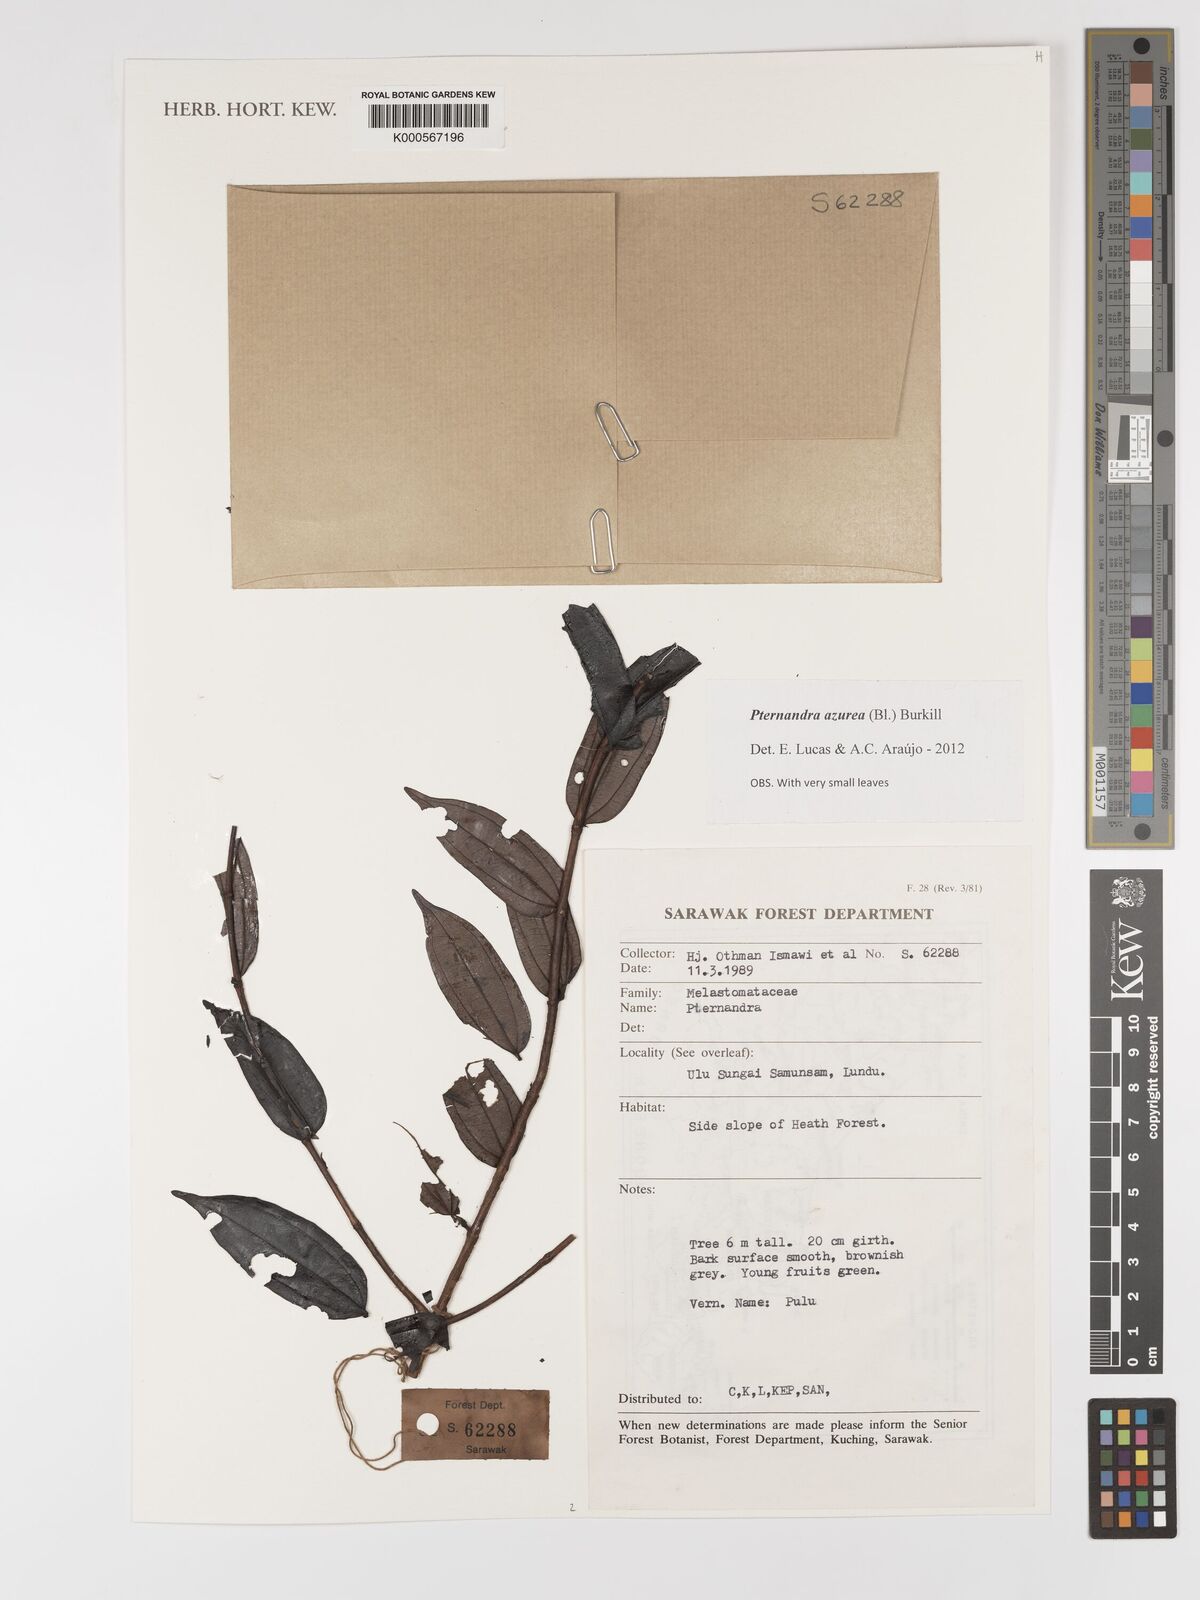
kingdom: Plantae
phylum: Tracheophyta
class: Magnoliopsida
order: Myrtales
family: Melastomataceae
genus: Pternandra
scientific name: Pternandra azurea
